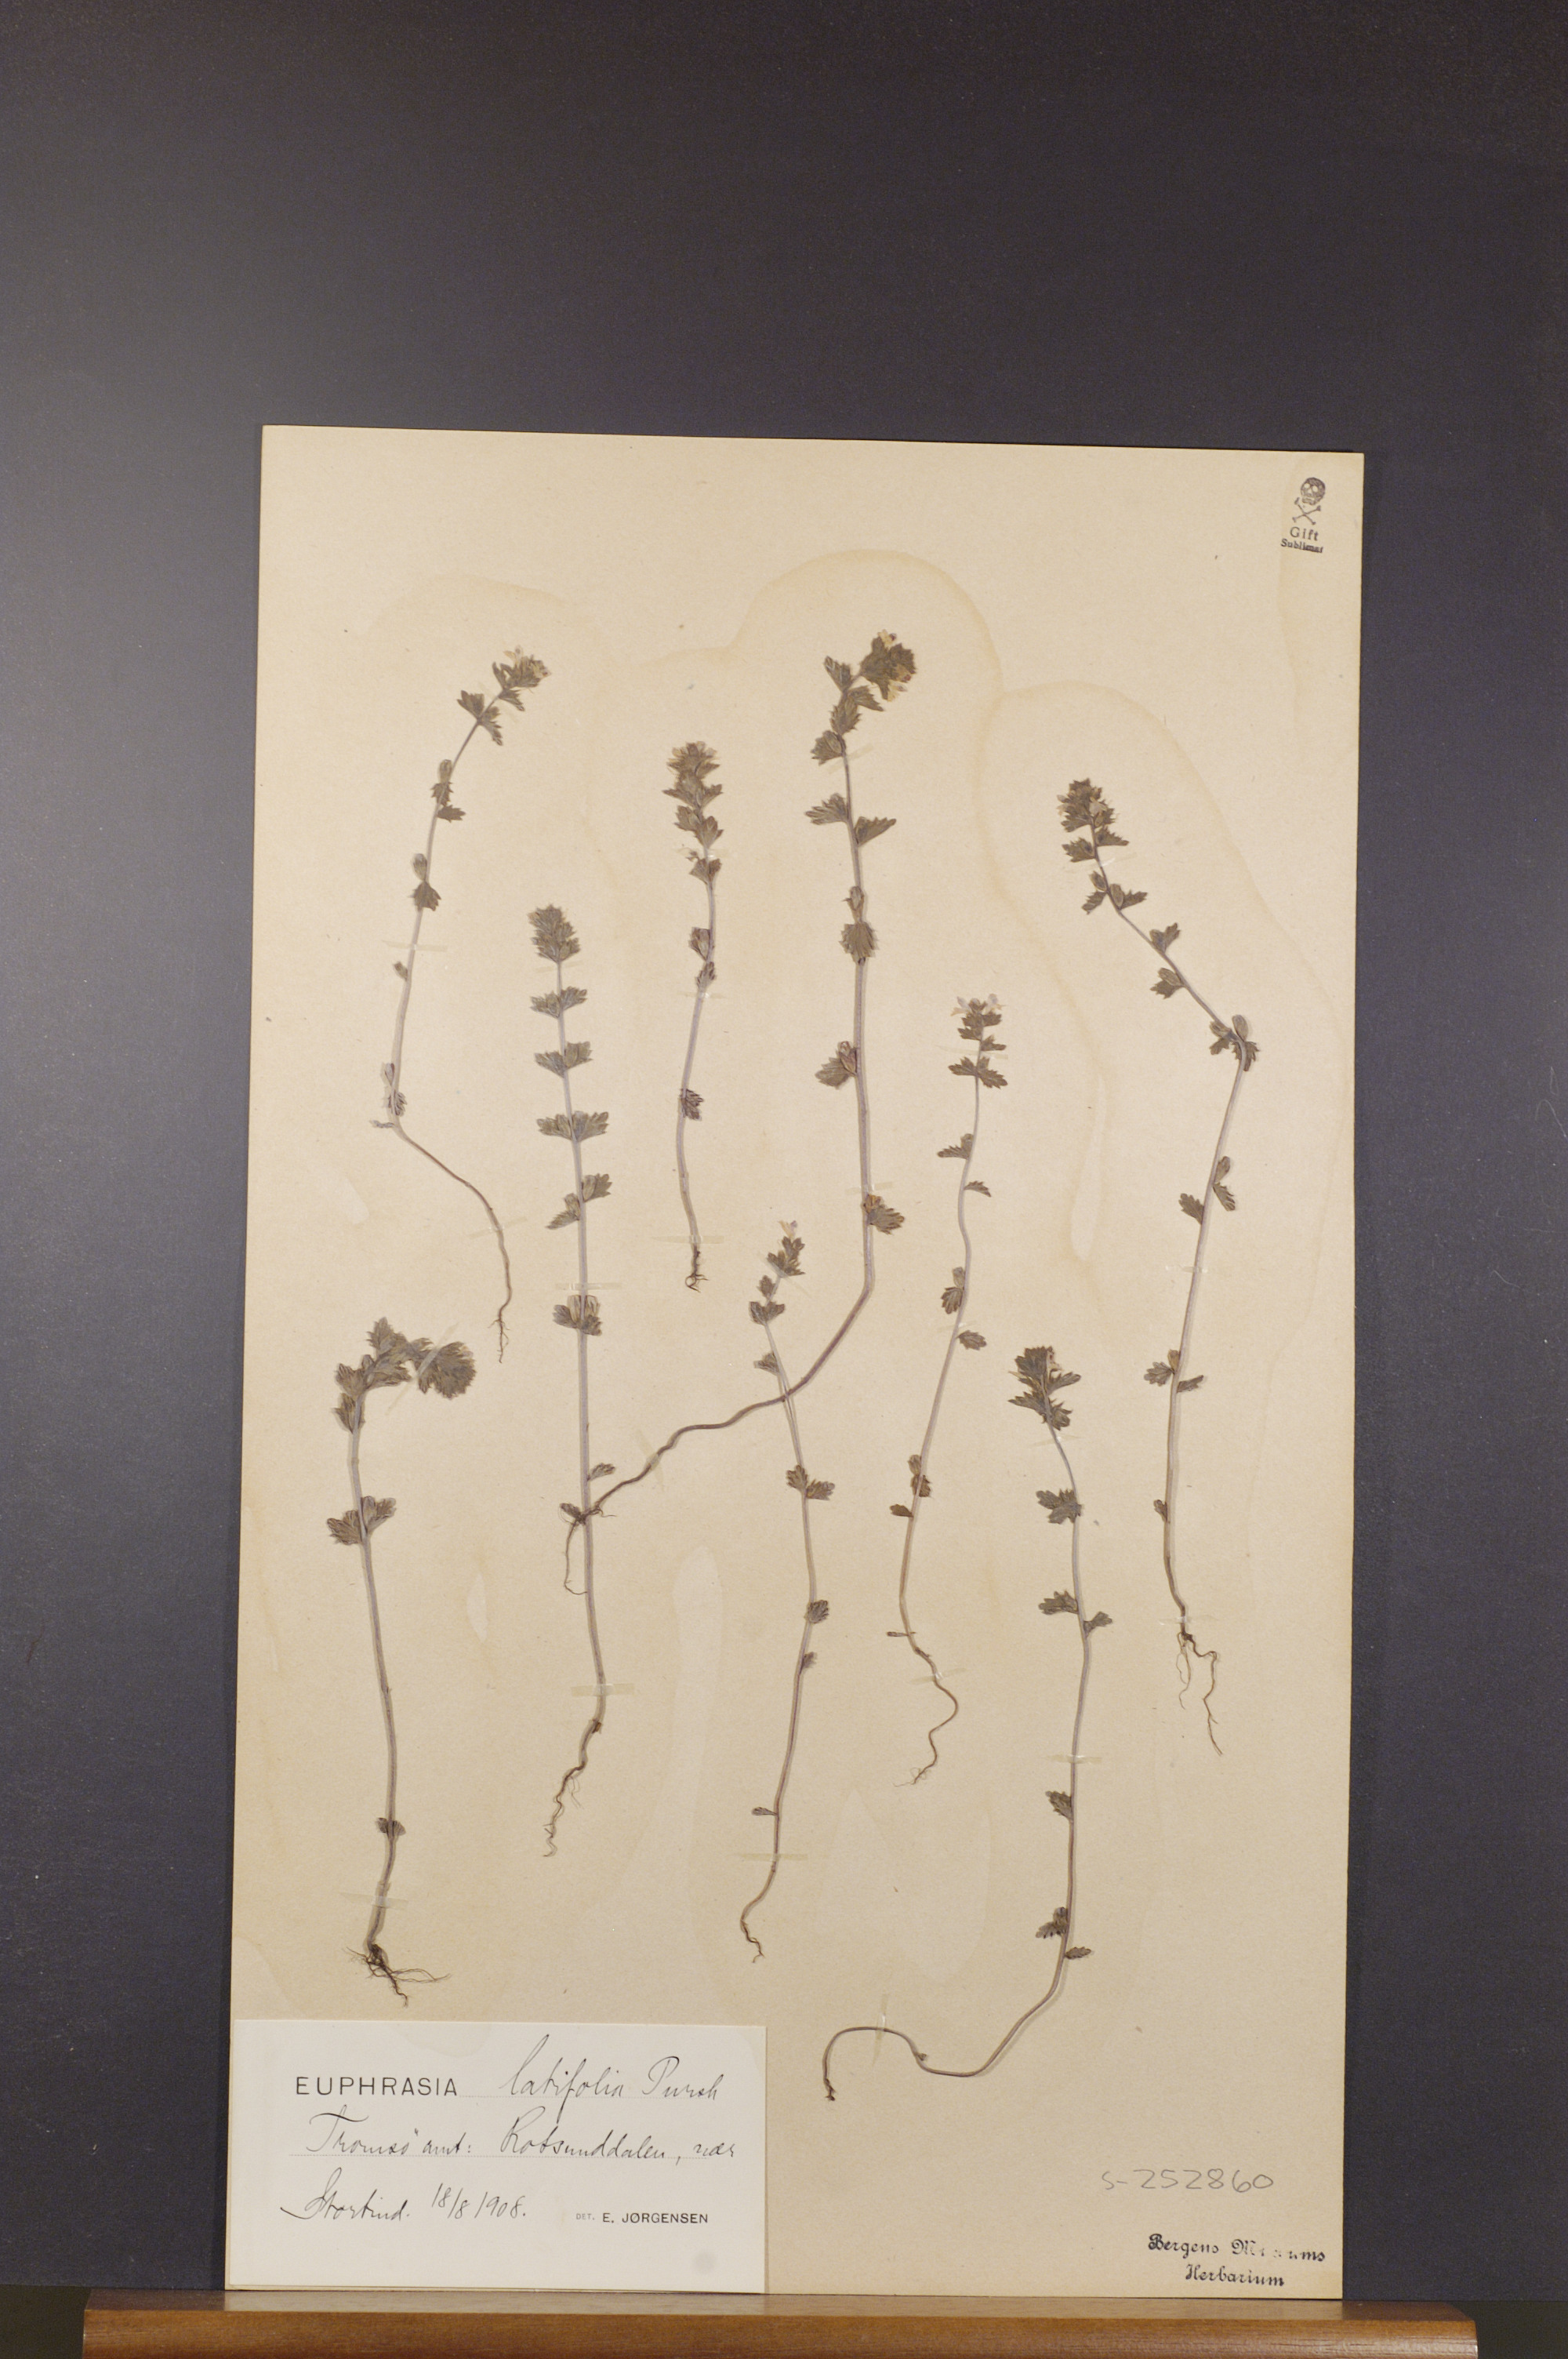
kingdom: Plantae
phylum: Tracheophyta
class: Magnoliopsida
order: Lamiales
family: Orobanchaceae
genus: Euphrasia
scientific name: Euphrasia wettsteinii
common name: Wettstein's eyebright
